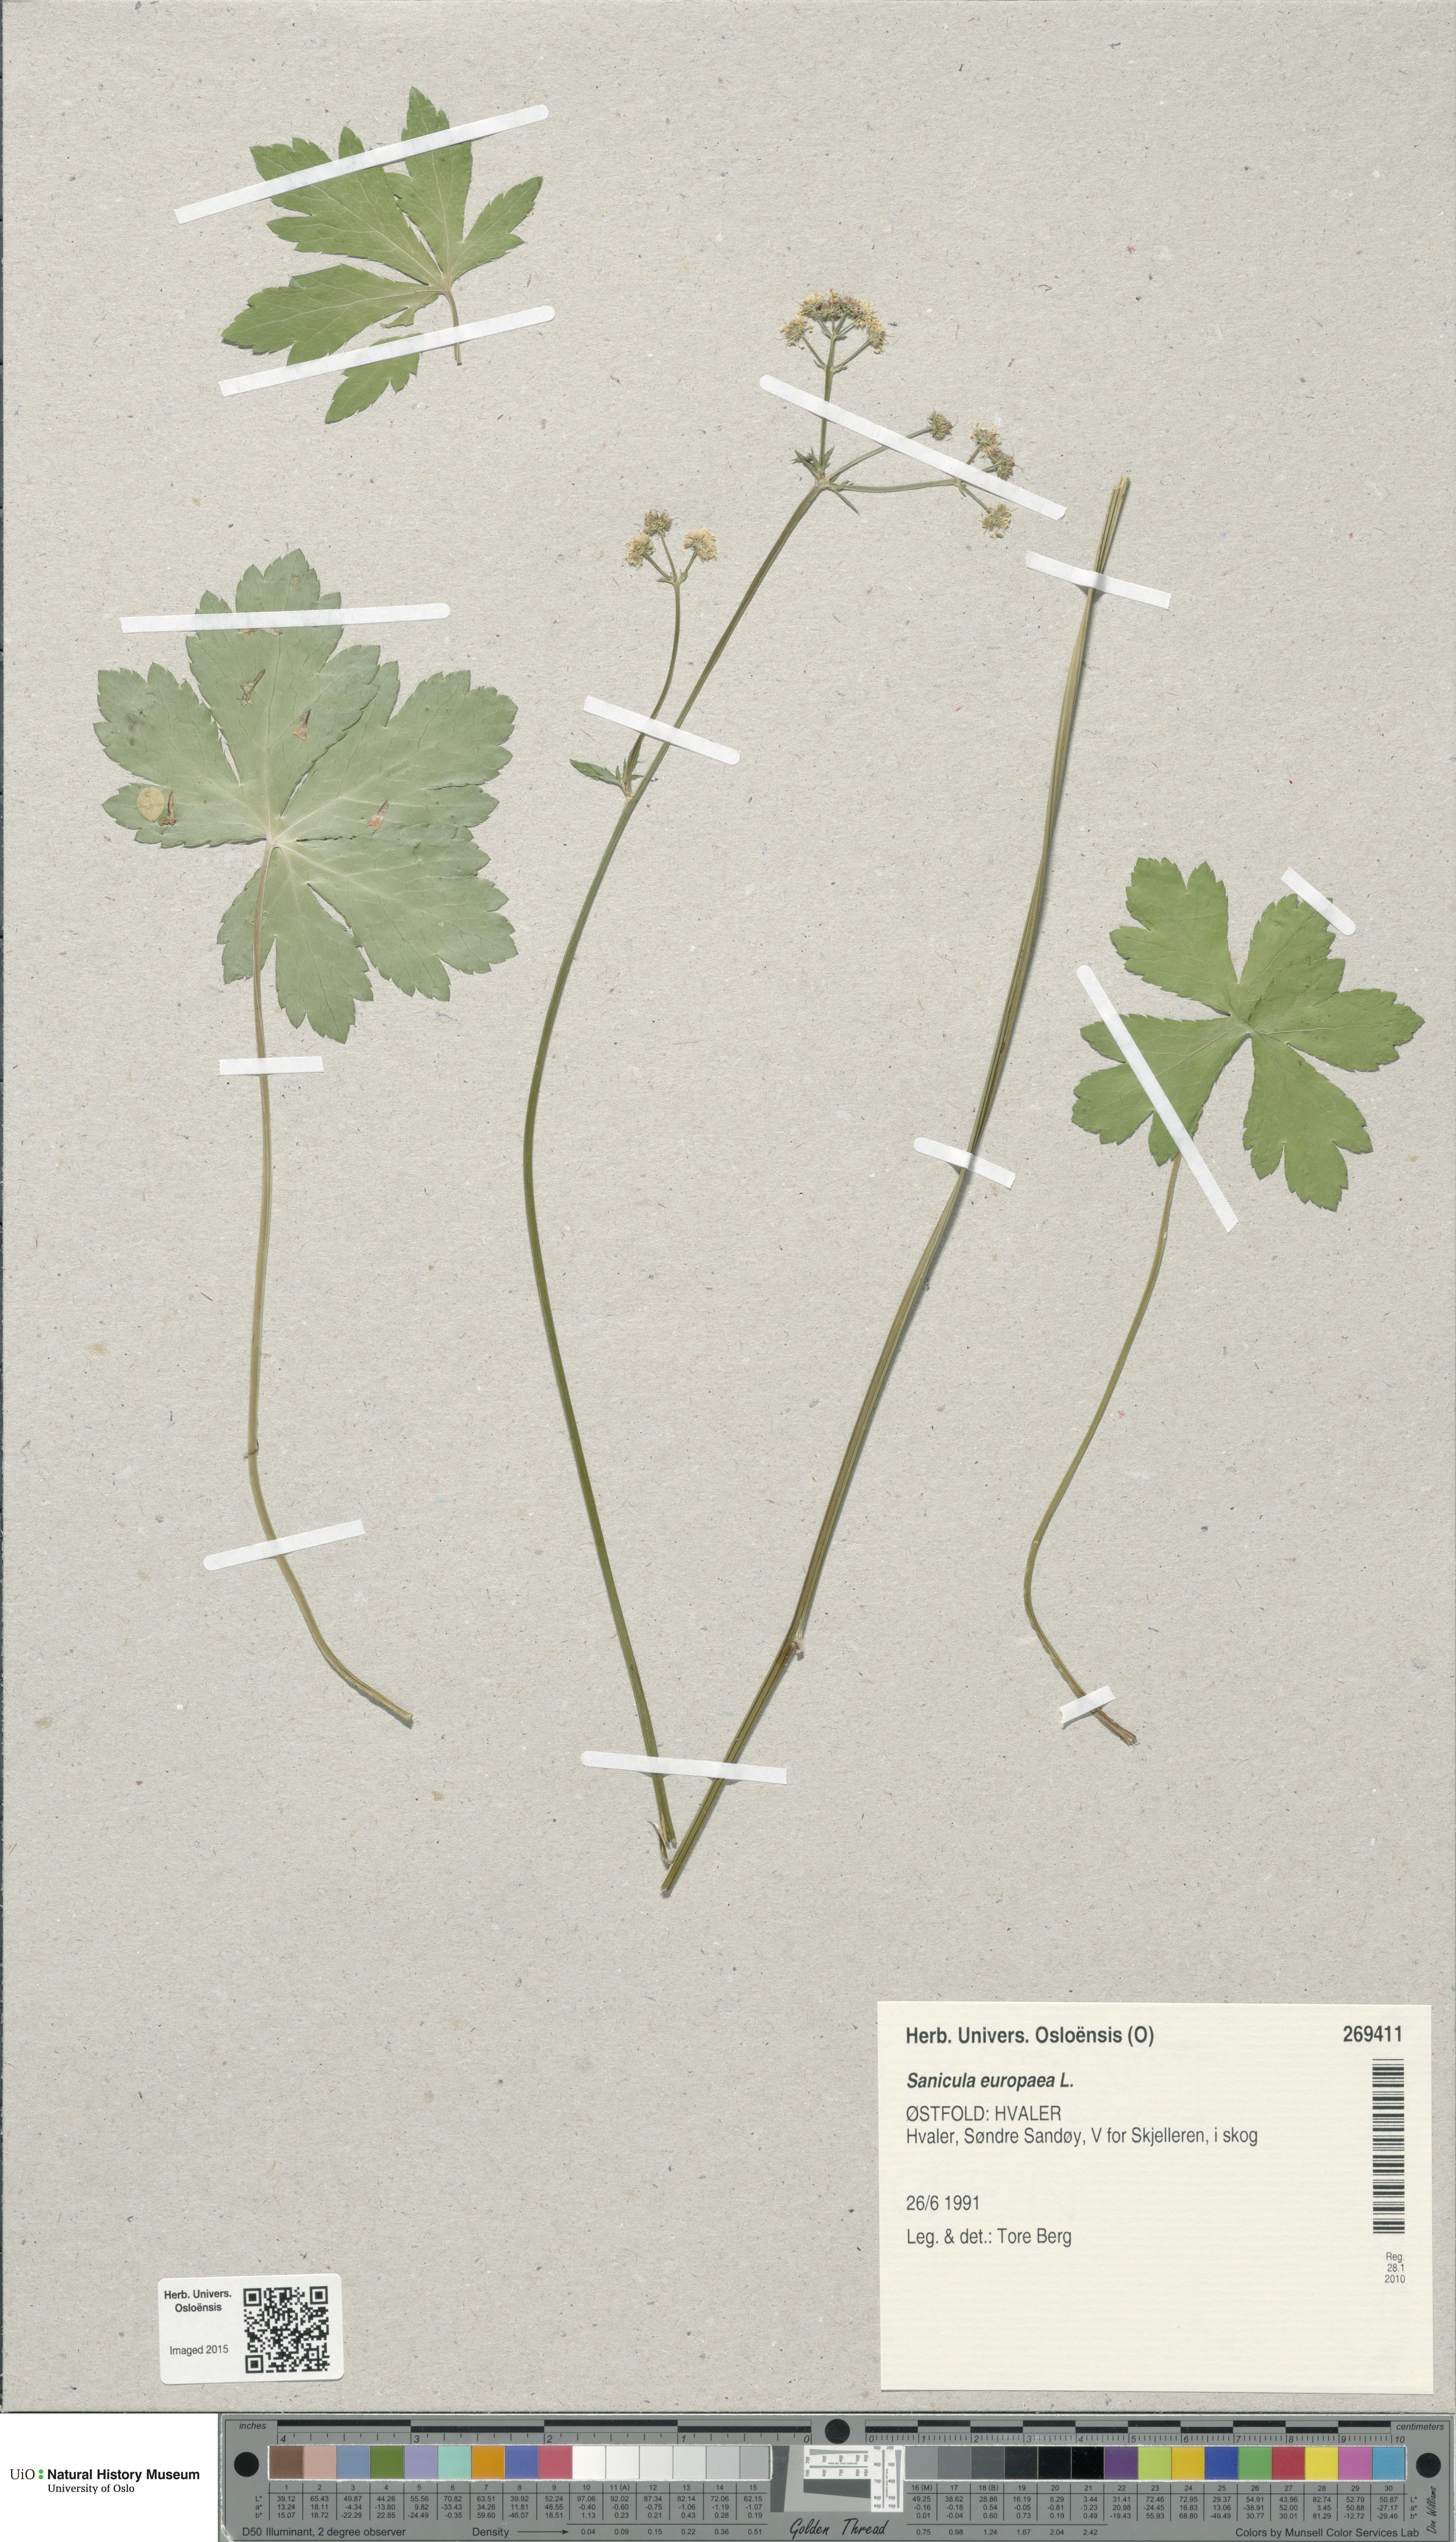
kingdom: Plantae
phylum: Tracheophyta
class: Magnoliopsida
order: Apiales
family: Apiaceae
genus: Sanicula
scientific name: Sanicula europaea
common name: Sanicle
